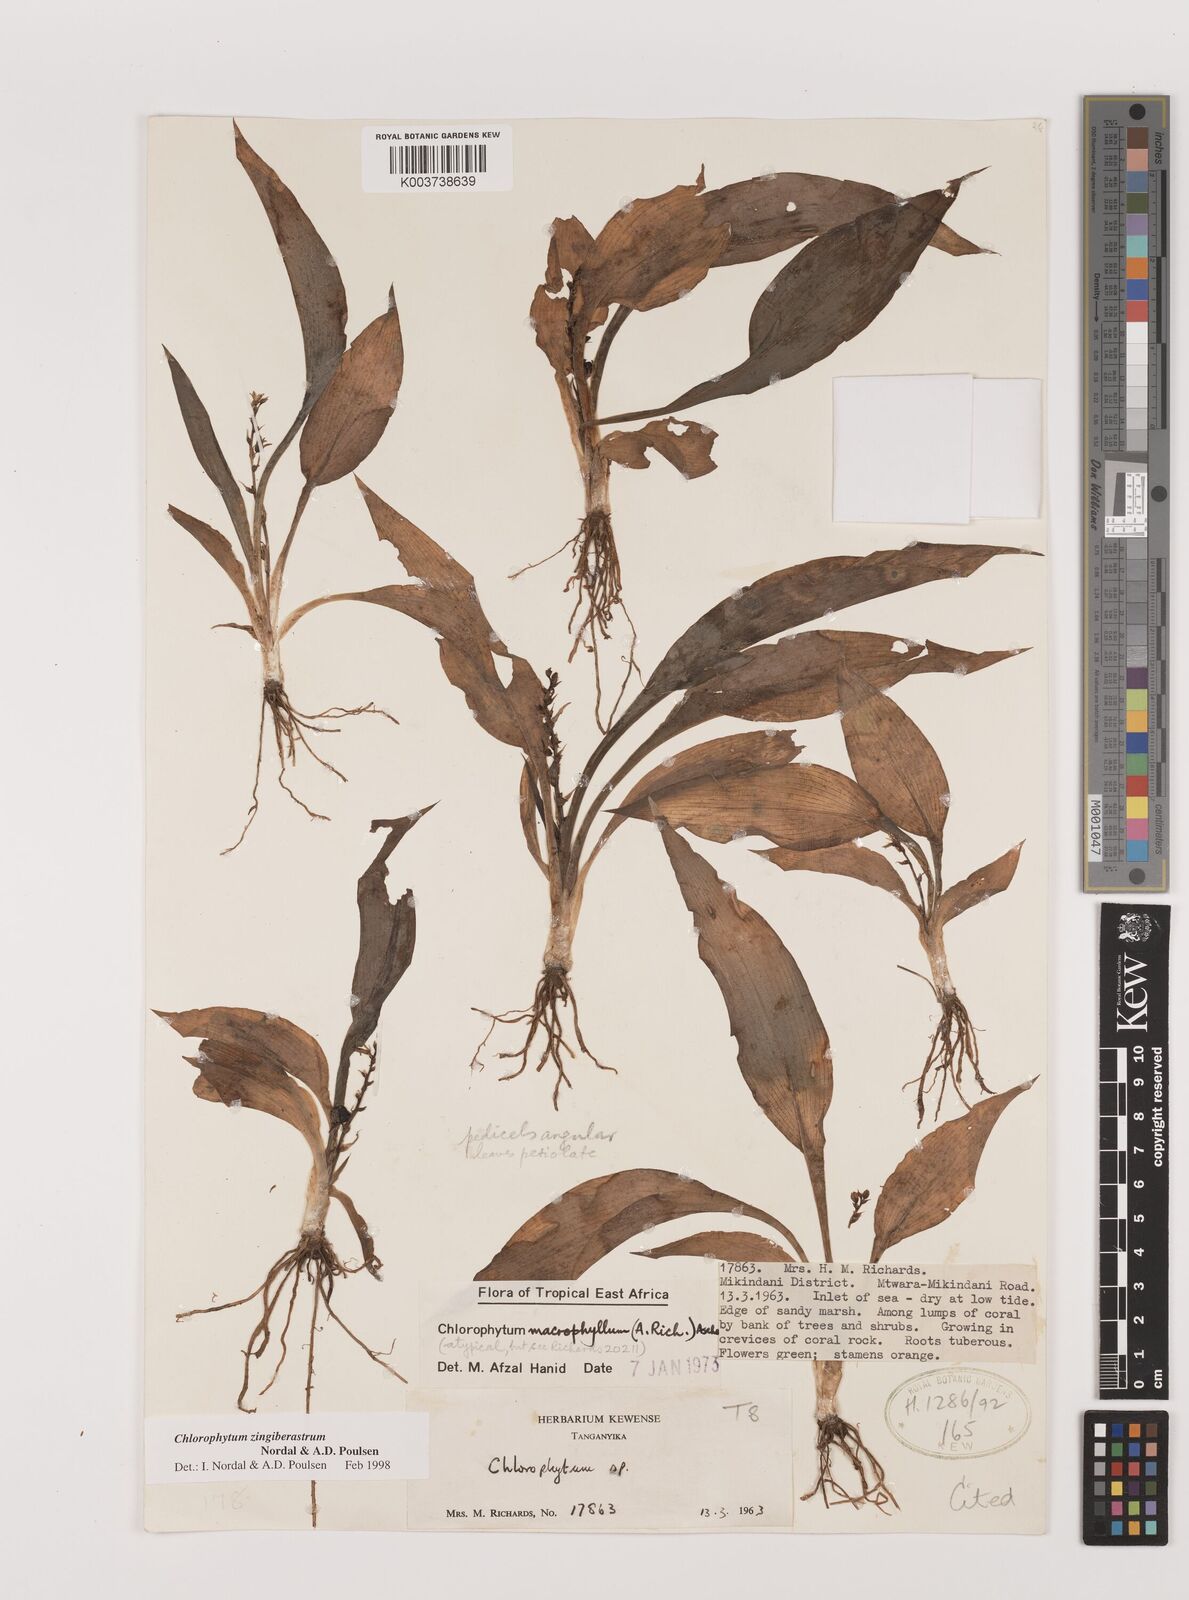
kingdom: Plantae
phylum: Tracheophyta
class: Liliopsida
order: Asparagales
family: Asparagaceae
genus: Chlorophytum
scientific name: Chlorophytum zingiberastrum
